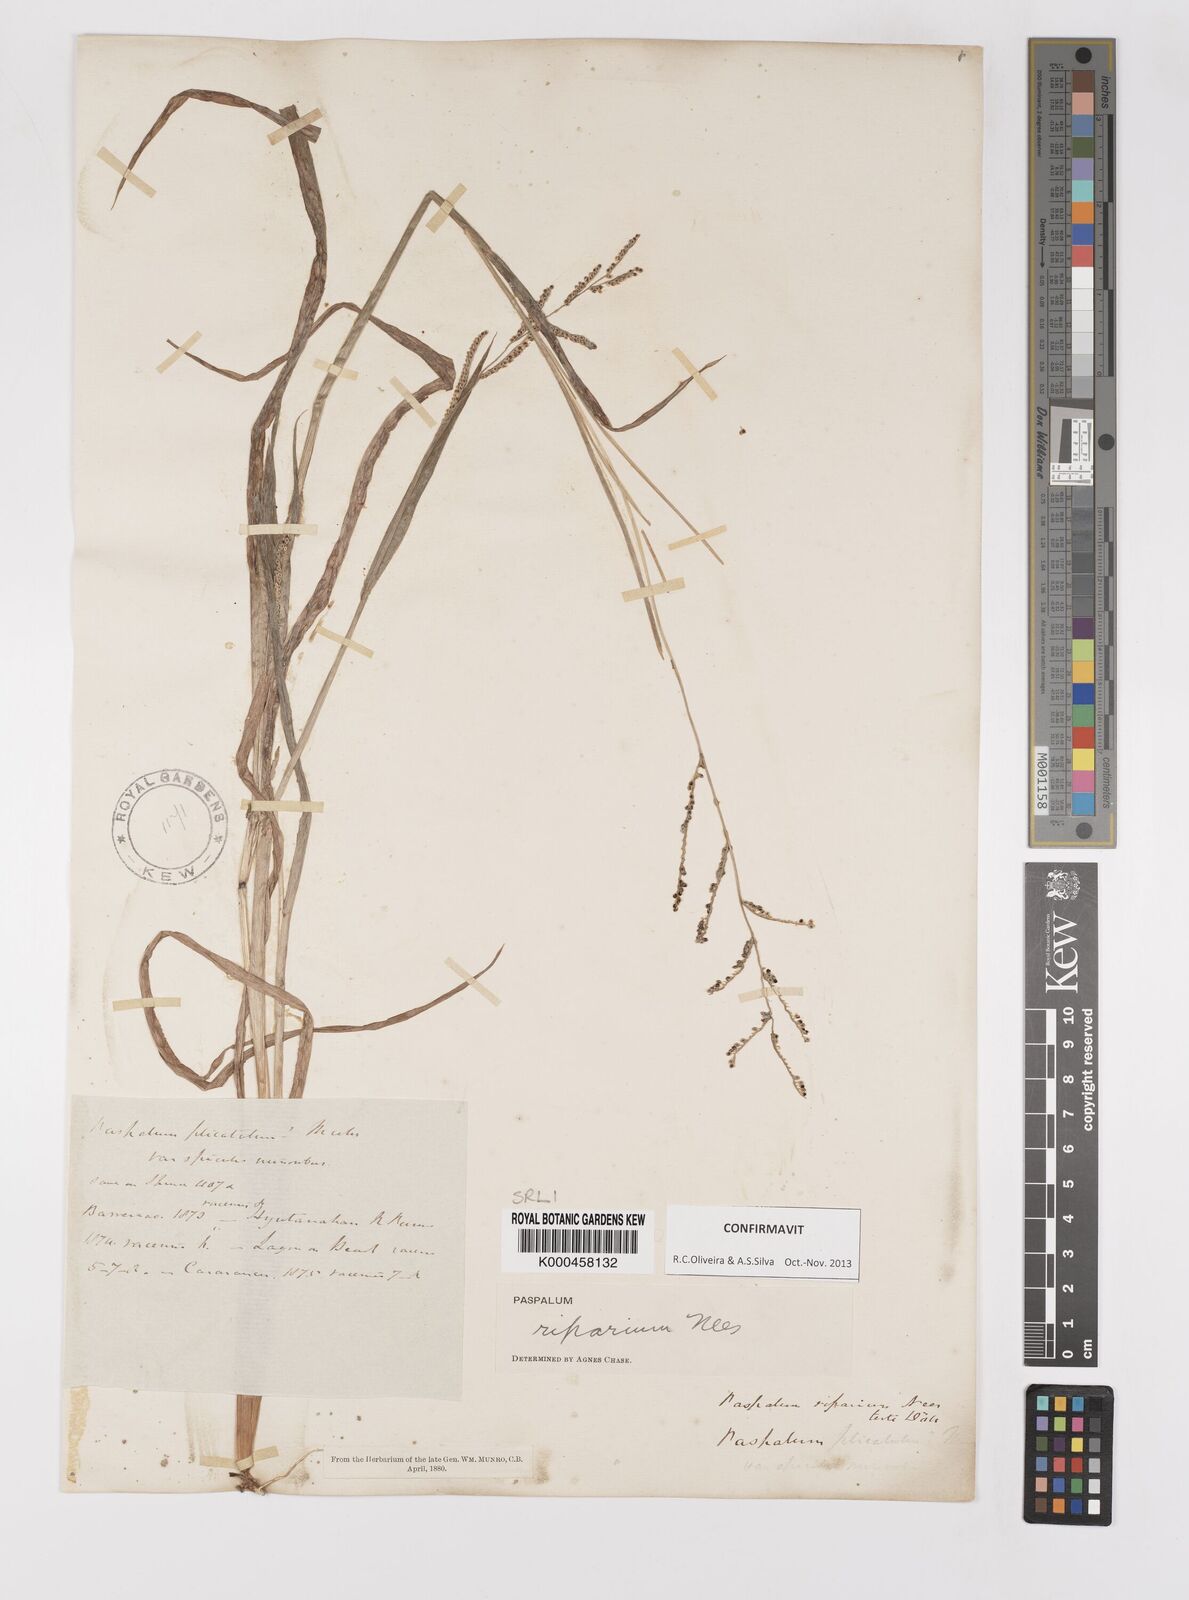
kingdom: Plantae
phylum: Tracheophyta
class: Liliopsida
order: Poales
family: Poaceae
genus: Paspalum
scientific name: Paspalum
